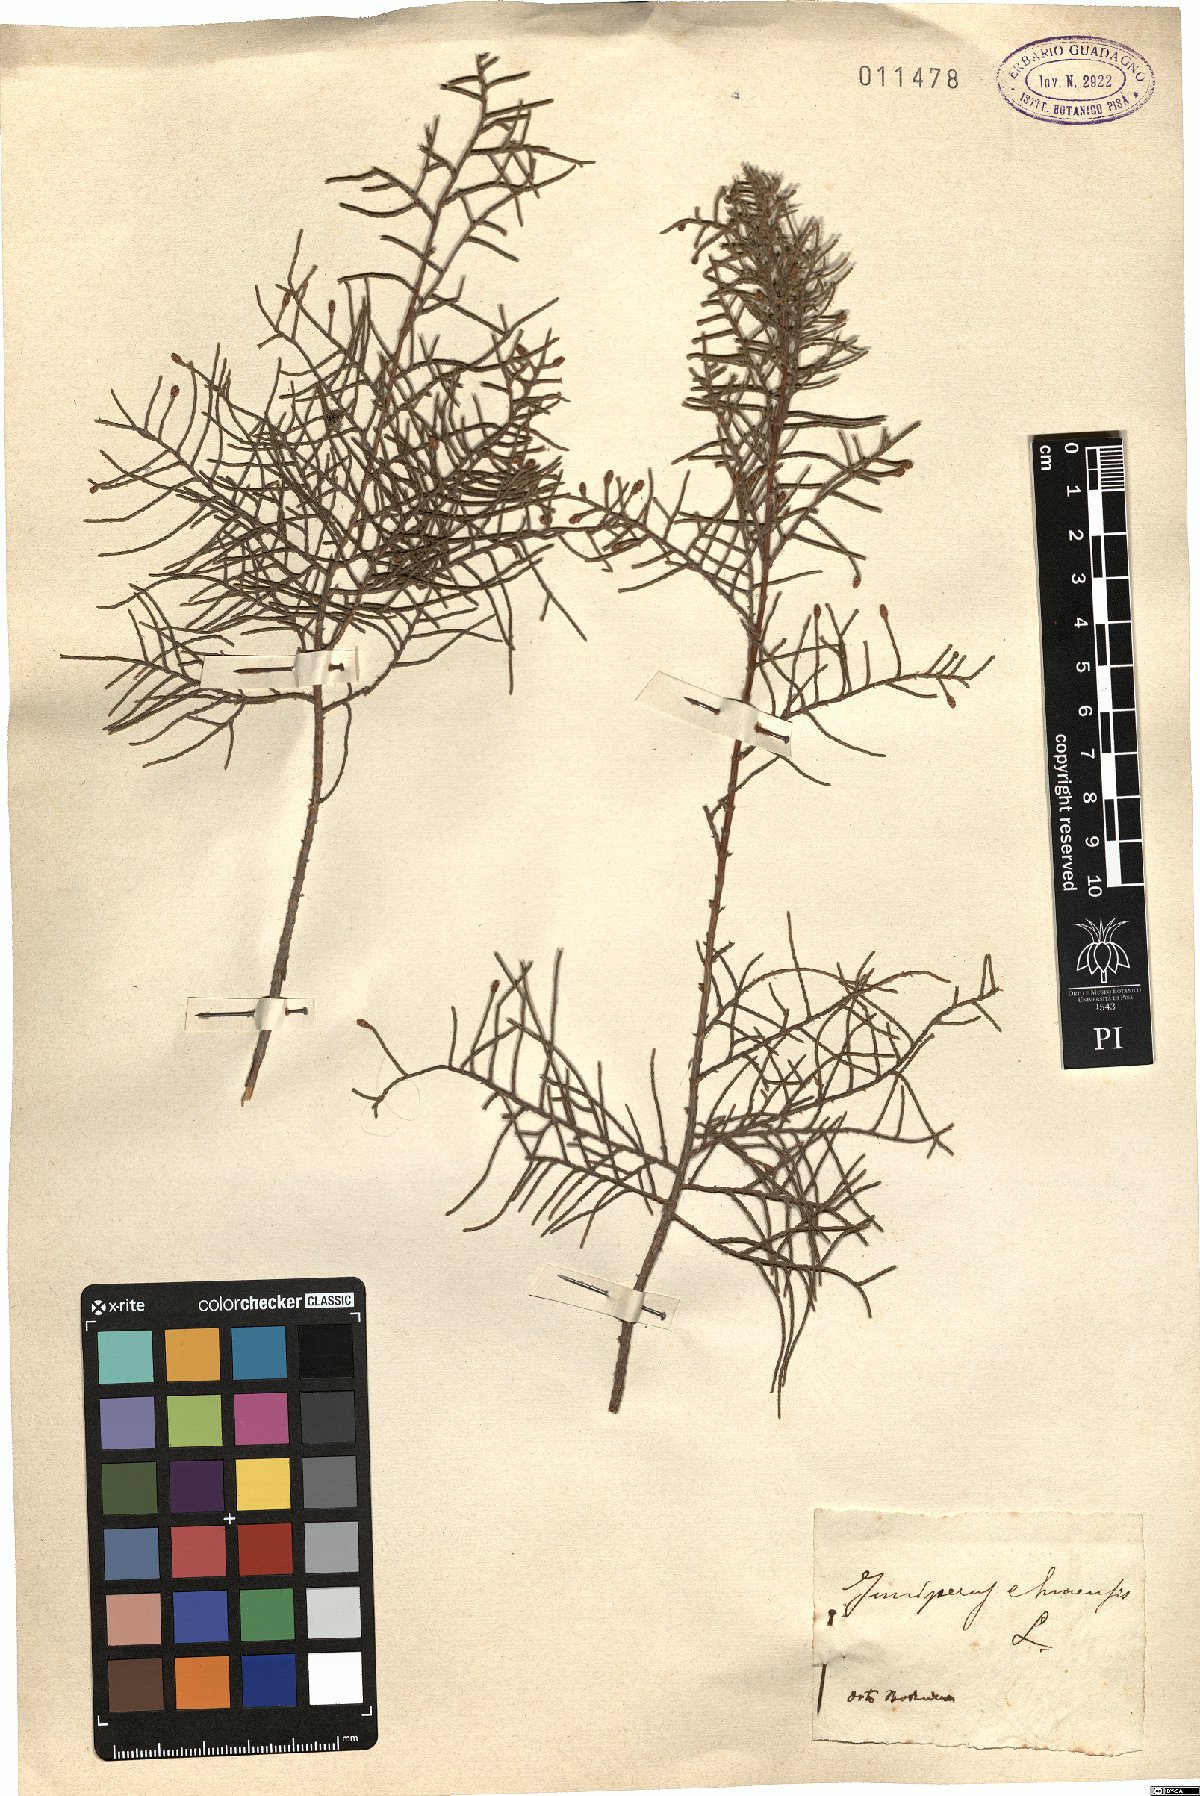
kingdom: Plantae
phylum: Tracheophyta
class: Pinopsida
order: Pinales
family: Cupressaceae
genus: Juniperus
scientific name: Juniperus chinensis
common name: Chinese juniper
